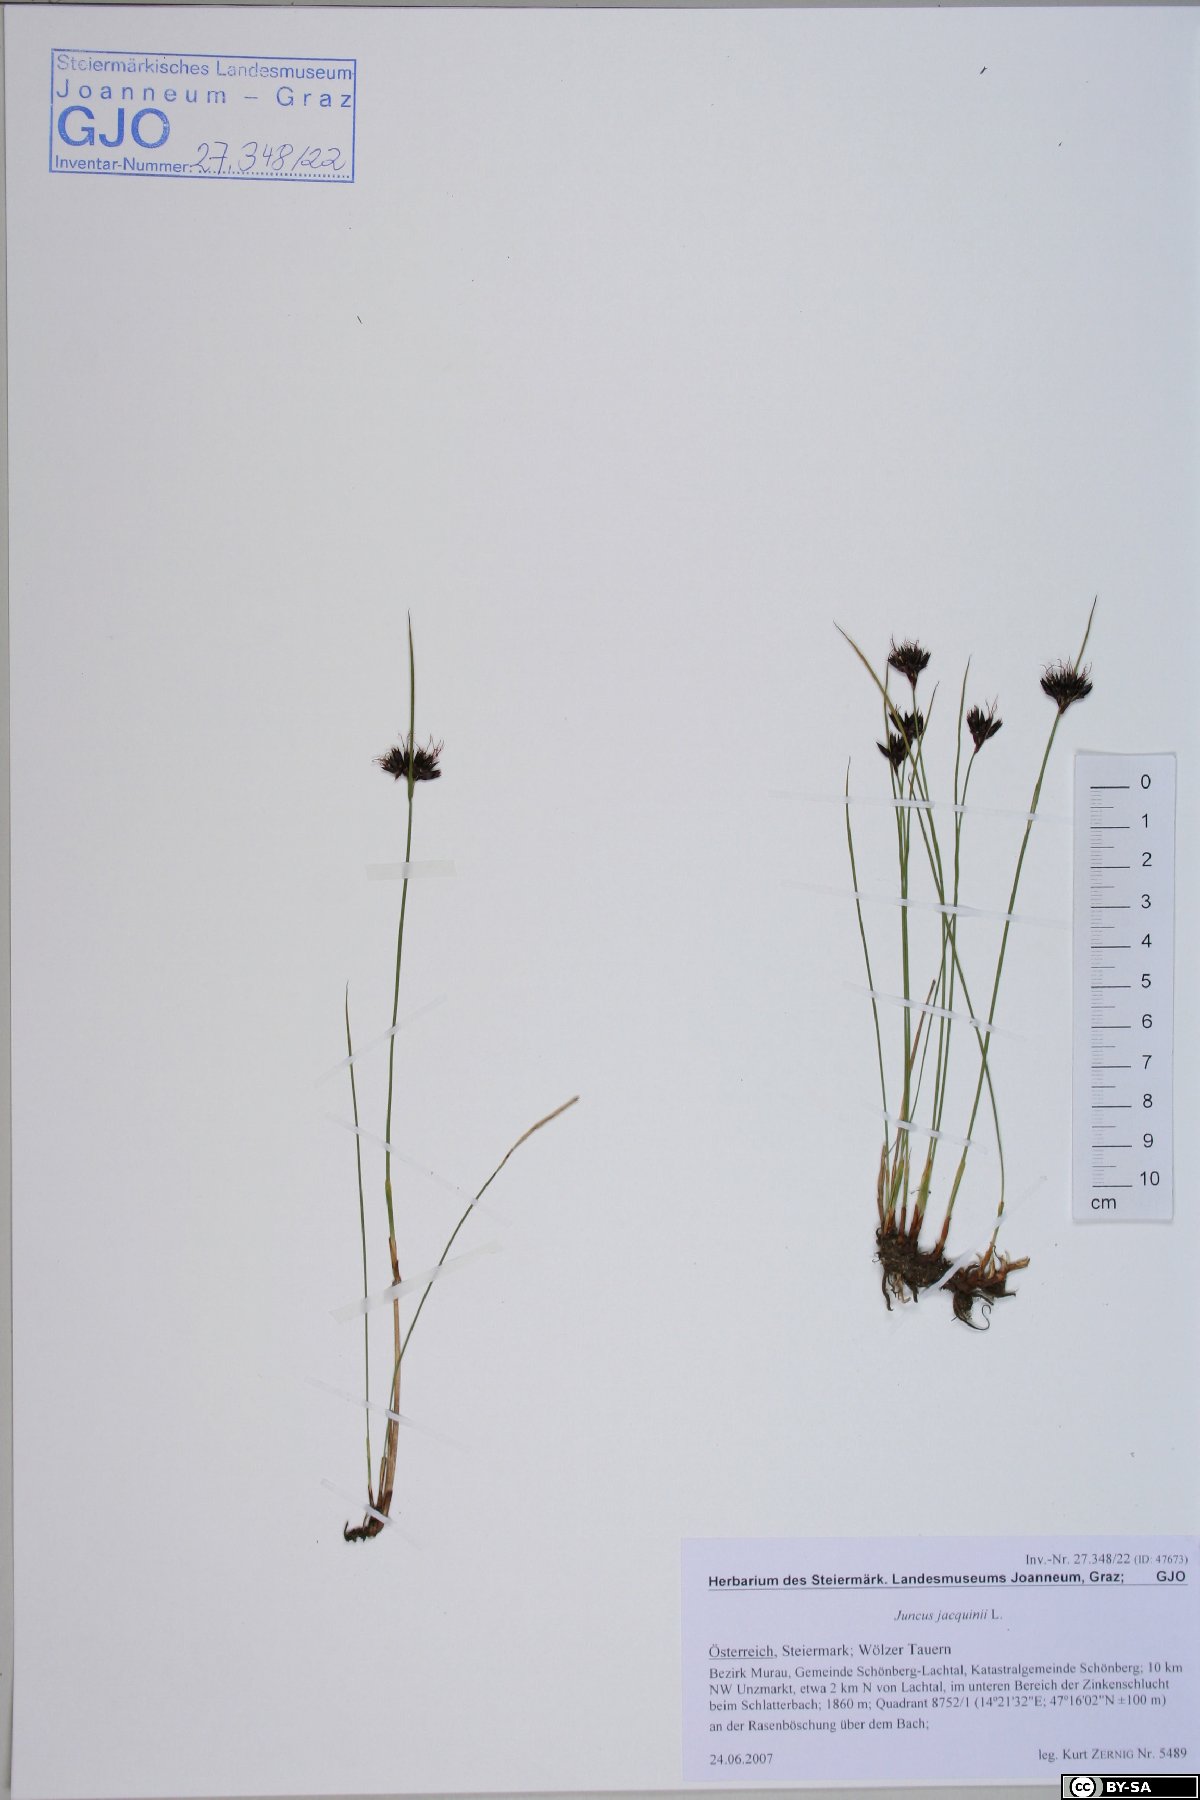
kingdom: Plantae
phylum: Tracheophyta
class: Liliopsida
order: Poales
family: Juncaceae
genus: Juncus
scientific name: Juncus jacquinii
